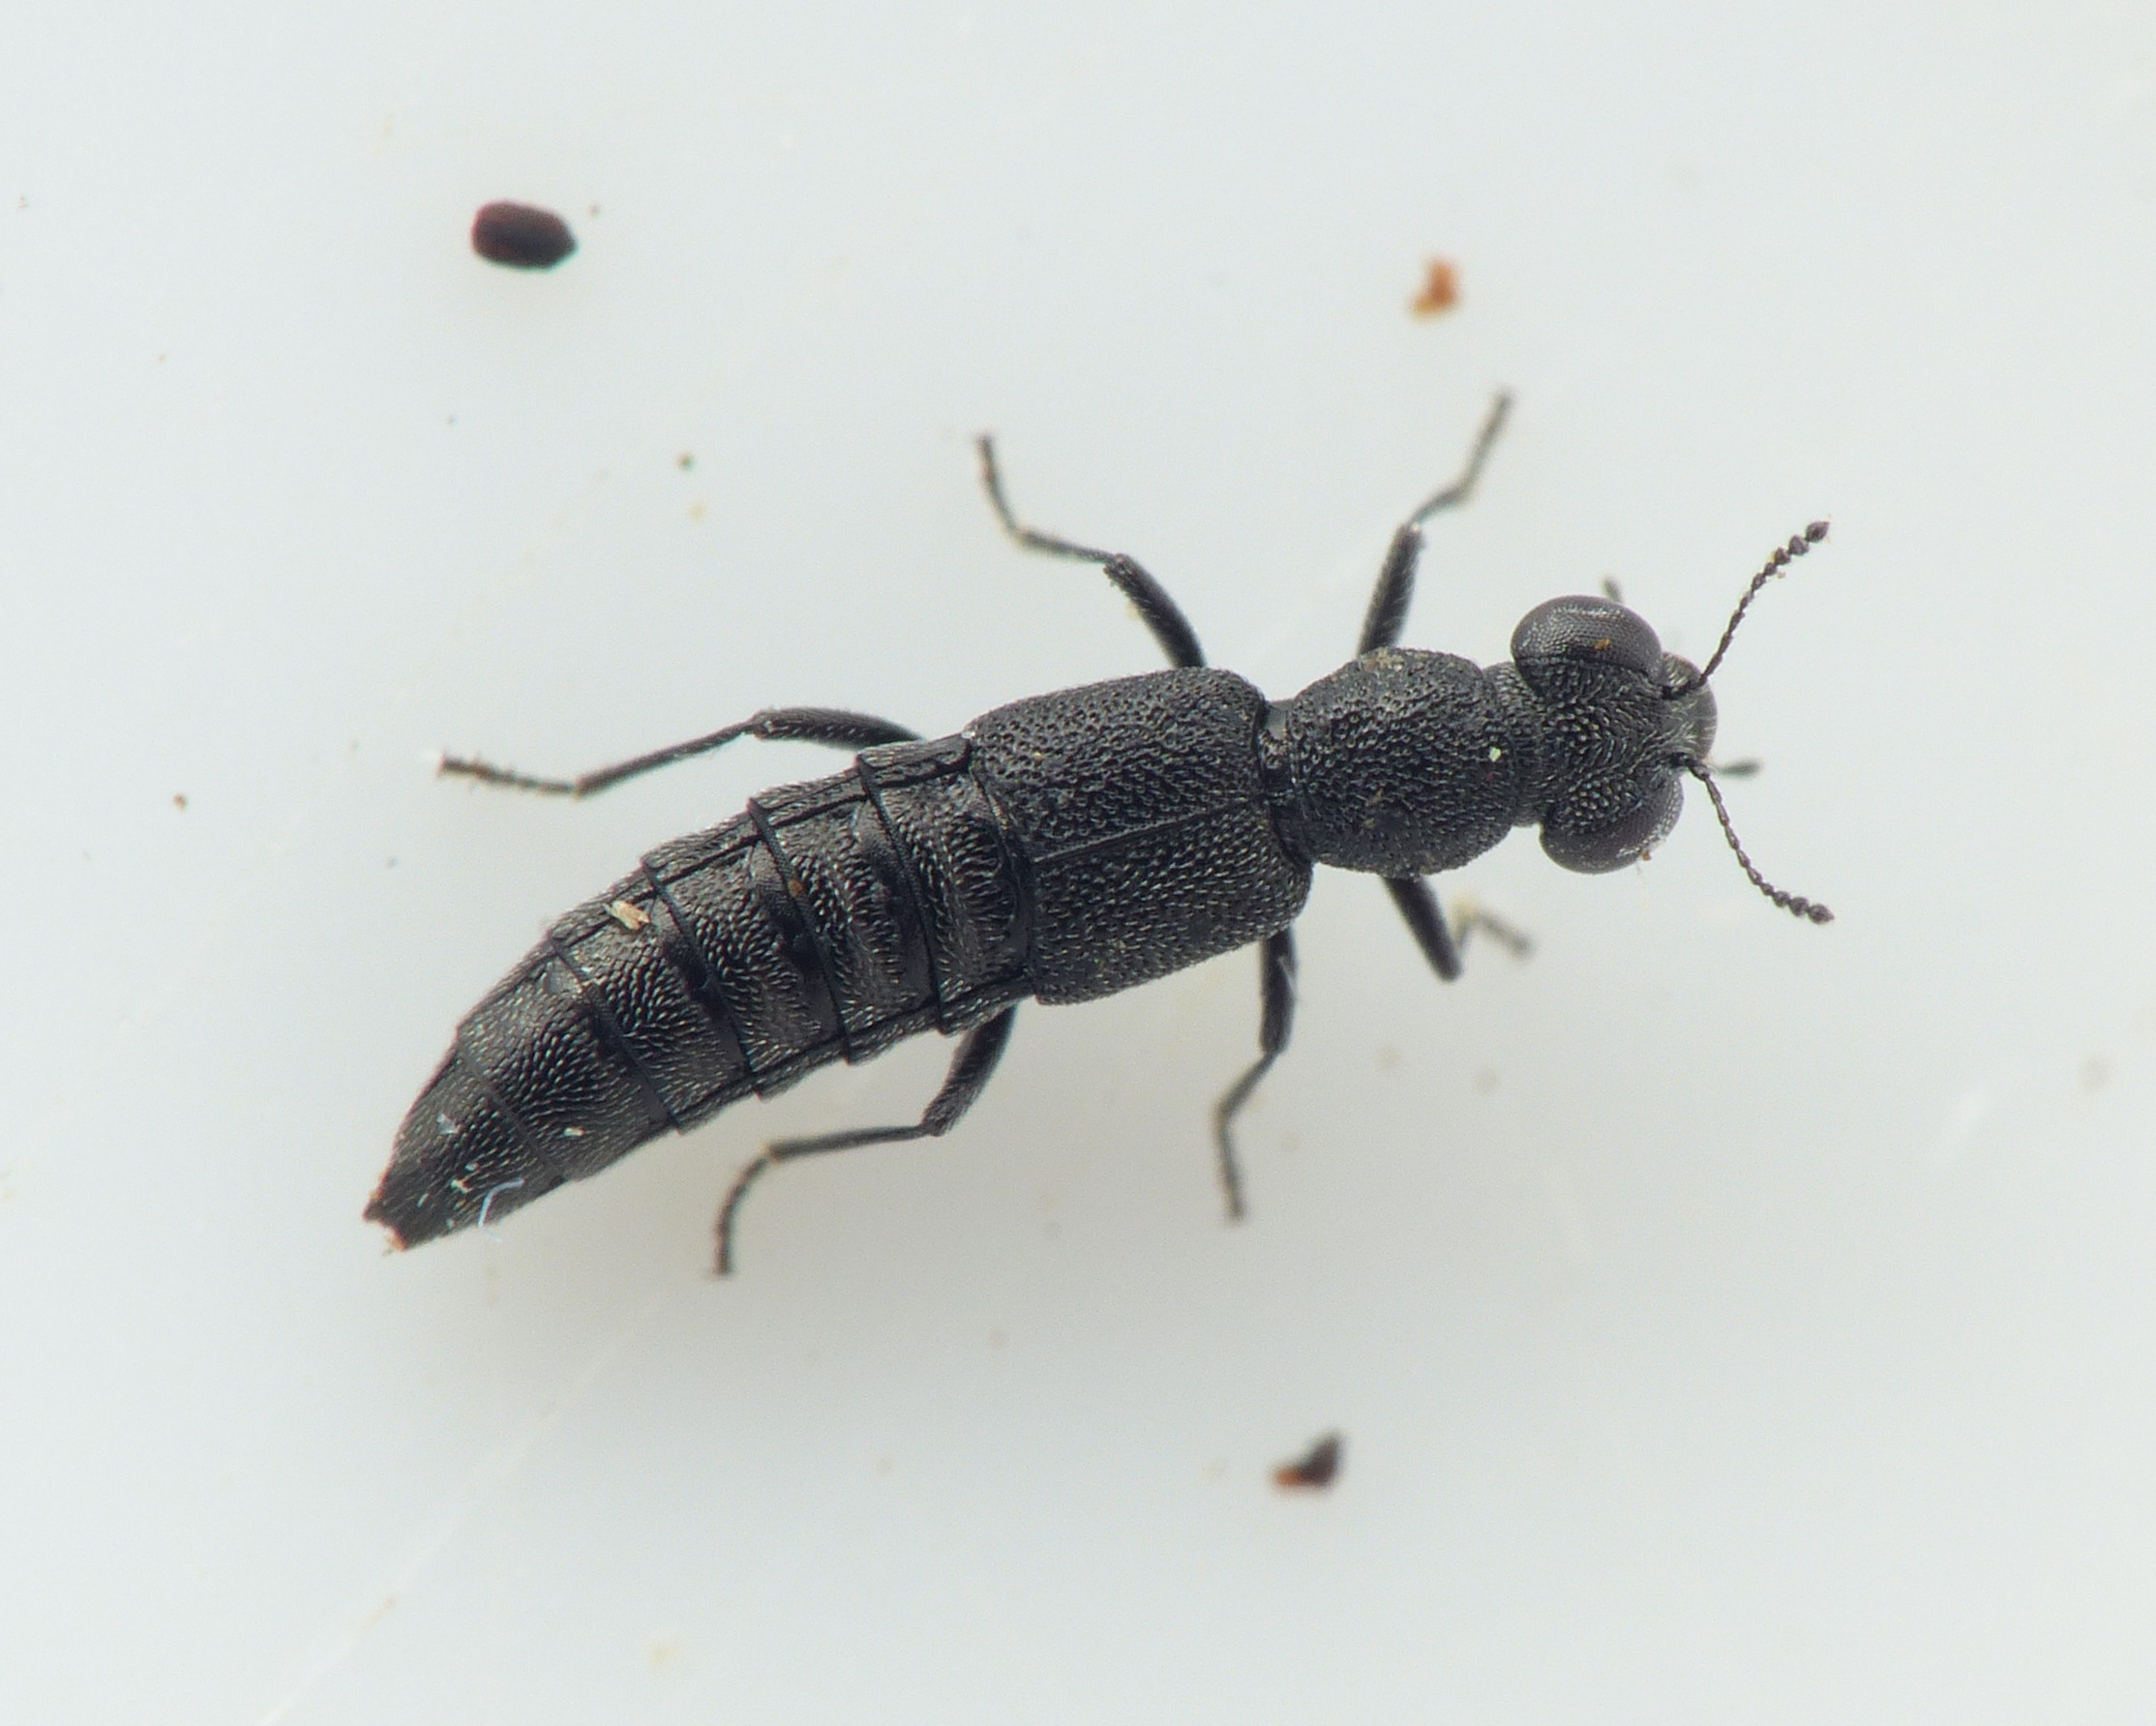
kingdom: Animalia
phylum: Arthropoda
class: Insecta
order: Coleoptera
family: Staphylinidae
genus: Stenus
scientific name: Stenus carbonarius
